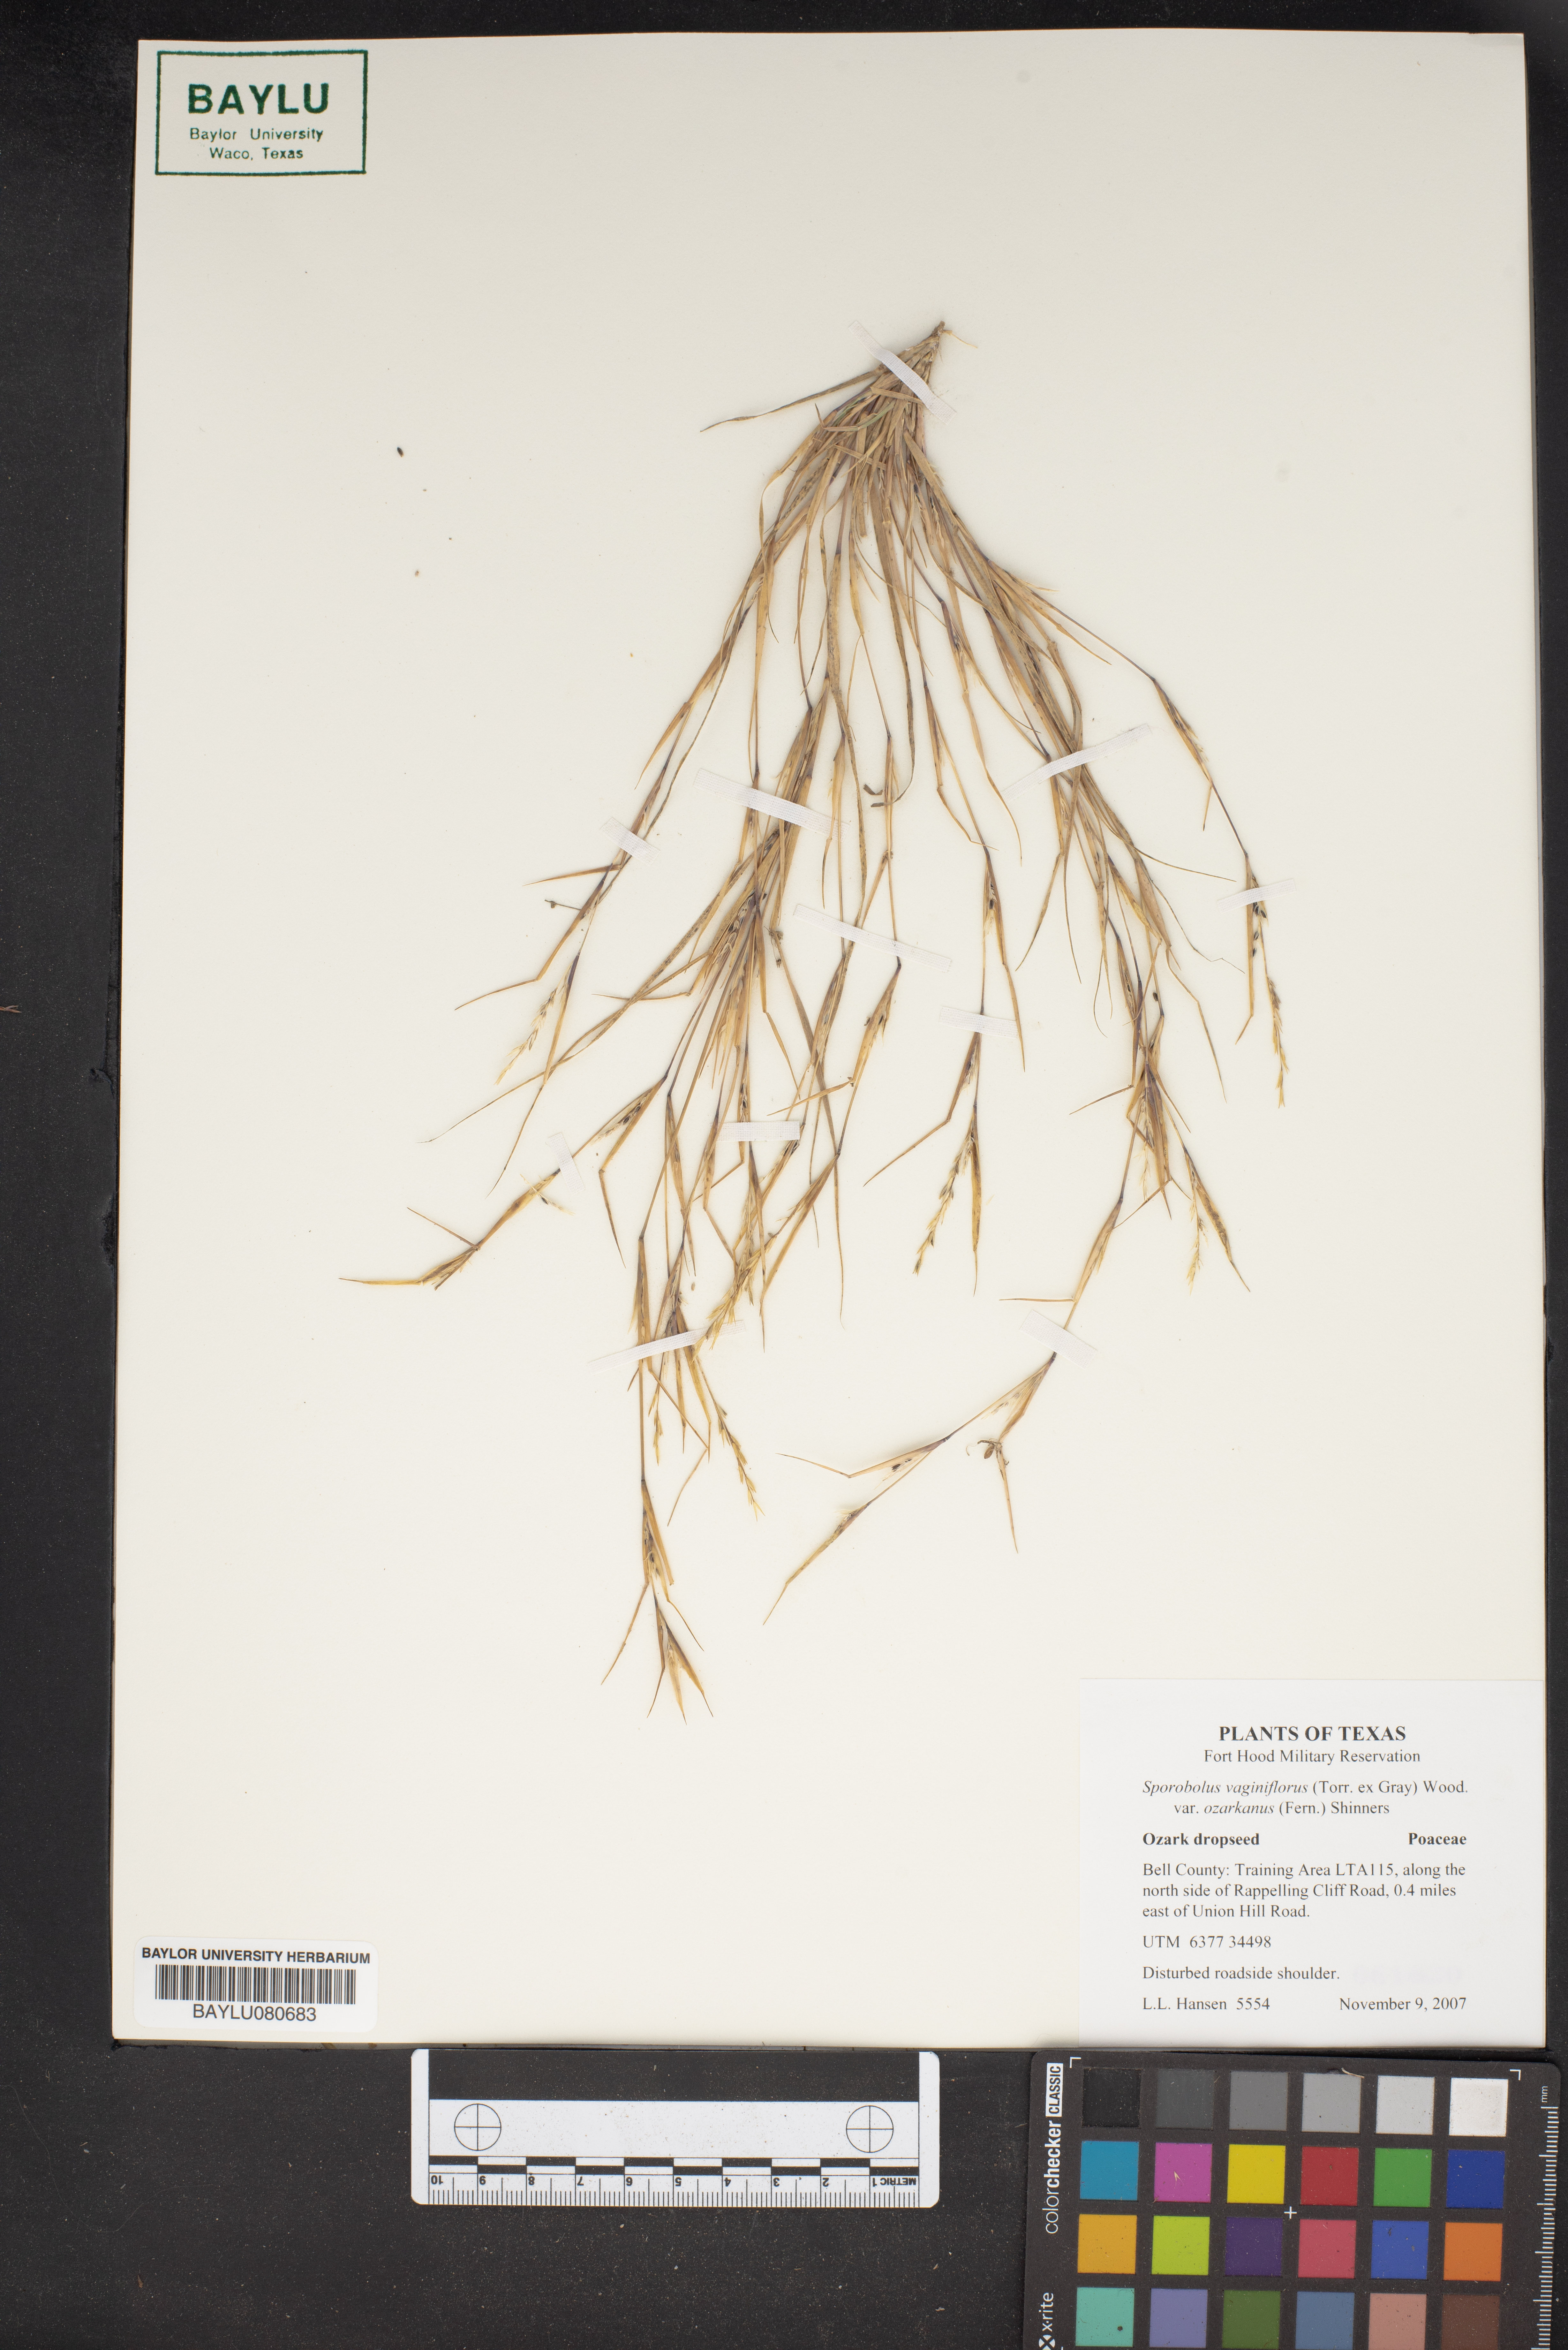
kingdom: Plantae
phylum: Tracheophyta
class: Liliopsida
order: Poales
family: Poaceae
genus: Sporobolus
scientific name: Sporobolus neglectus
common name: Annual dropseed
